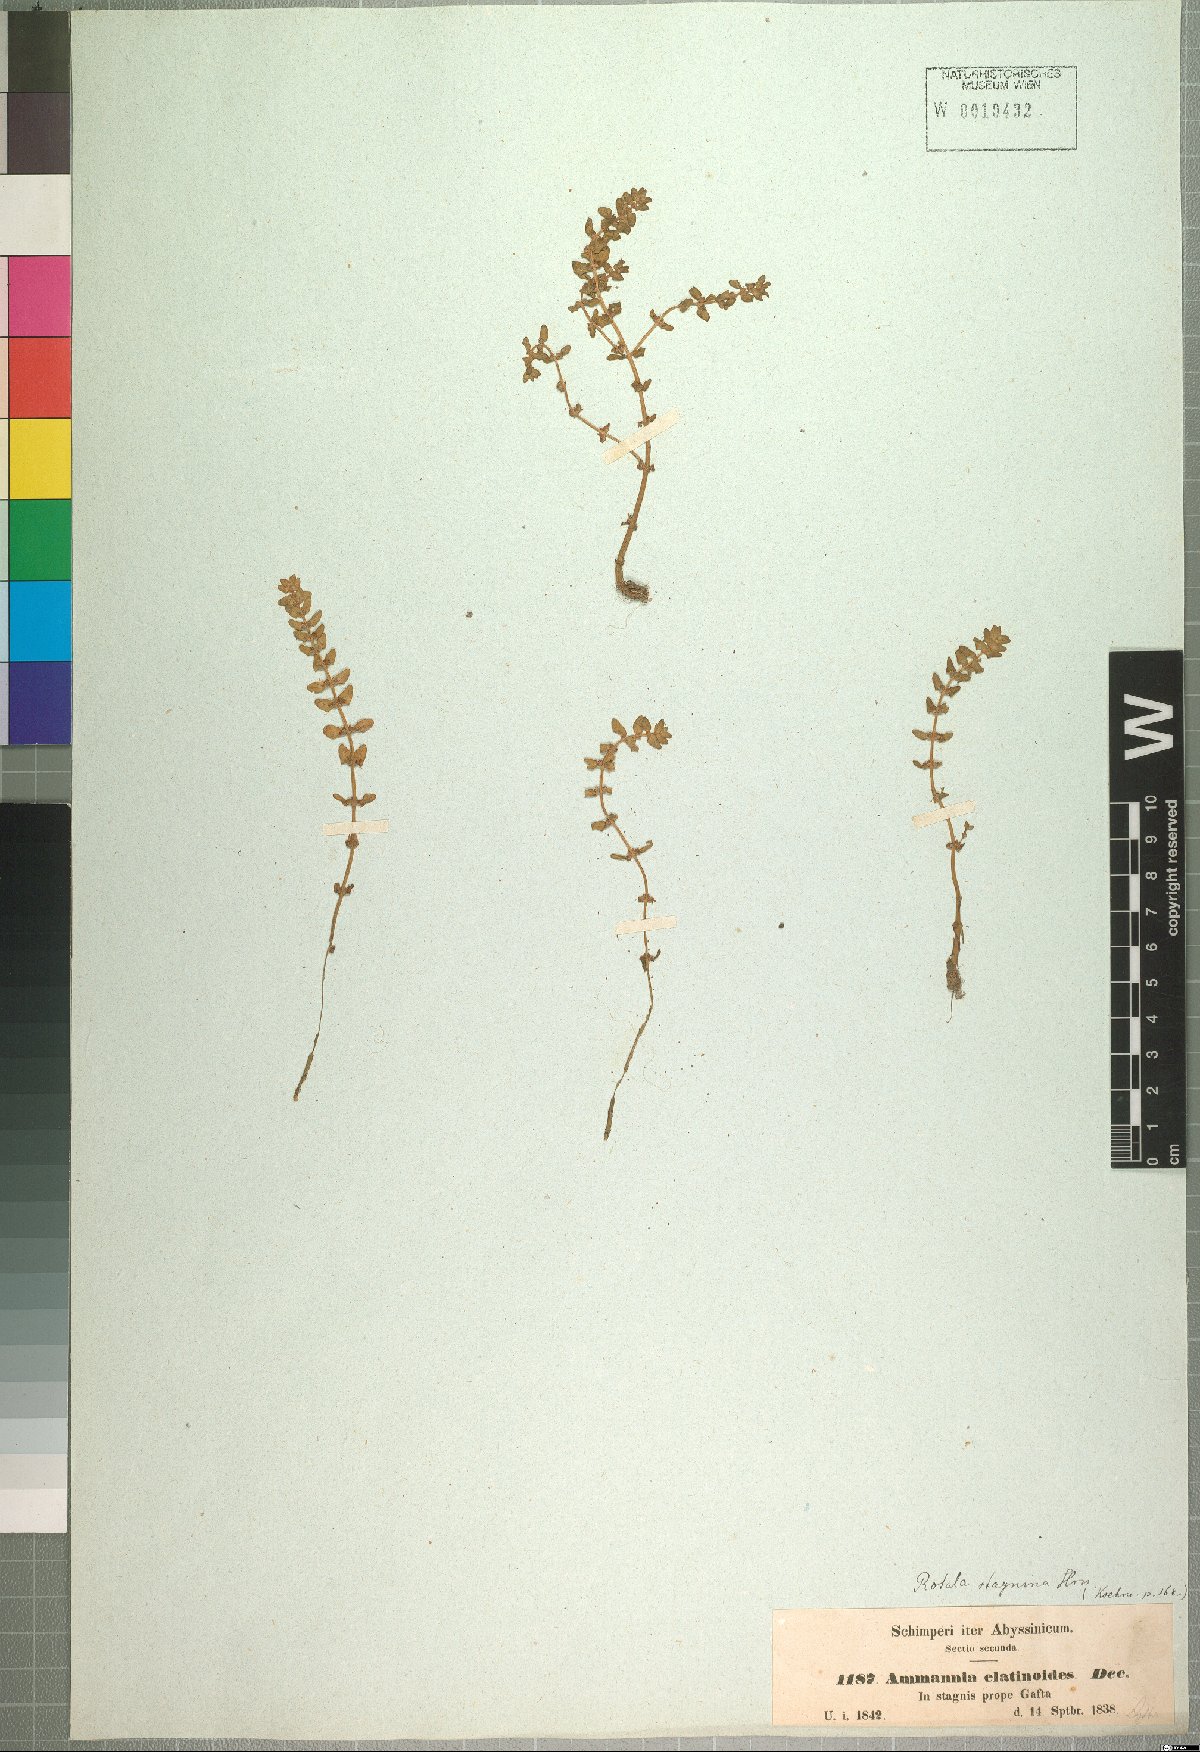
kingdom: Plantae
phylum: Tracheophyta
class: Magnoliopsida
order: Myrtales
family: Lythraceae
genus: Rotala
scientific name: Rotala stagnina
